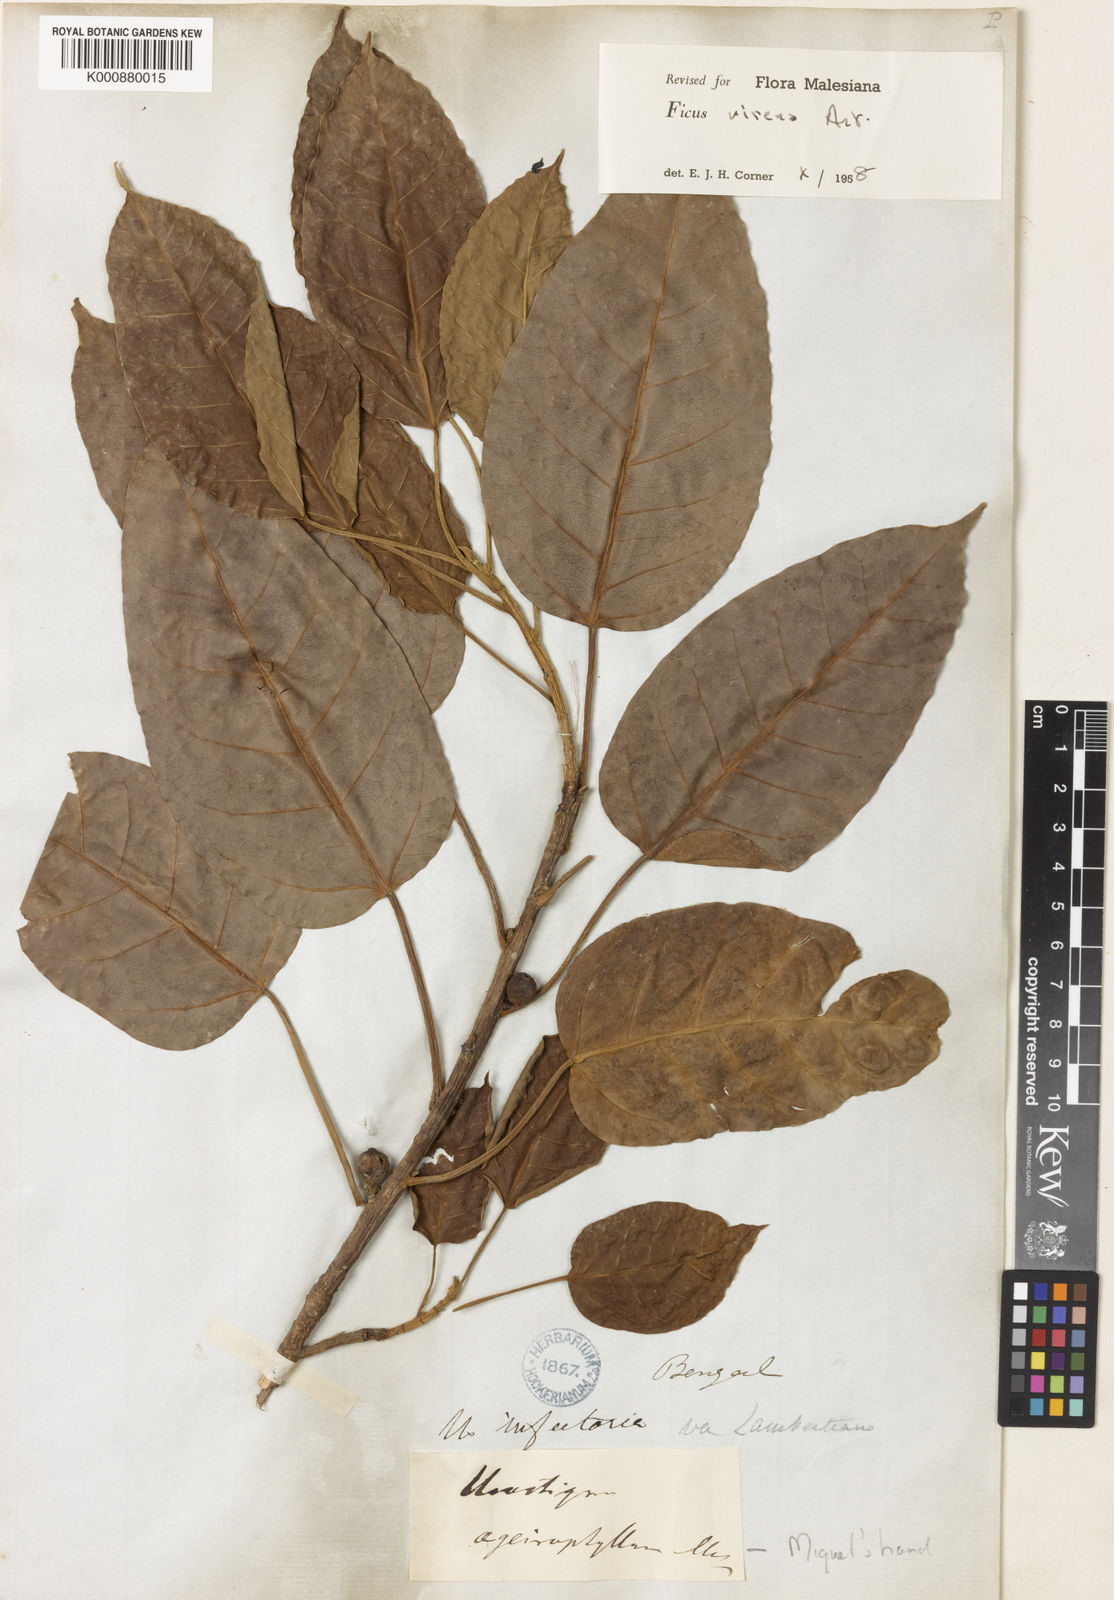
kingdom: Plantae
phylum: Tracheophyta
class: Magnoliopsida
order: Rosales
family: Moraceae
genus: Ficus
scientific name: Ficus virens
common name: Spotted fig
